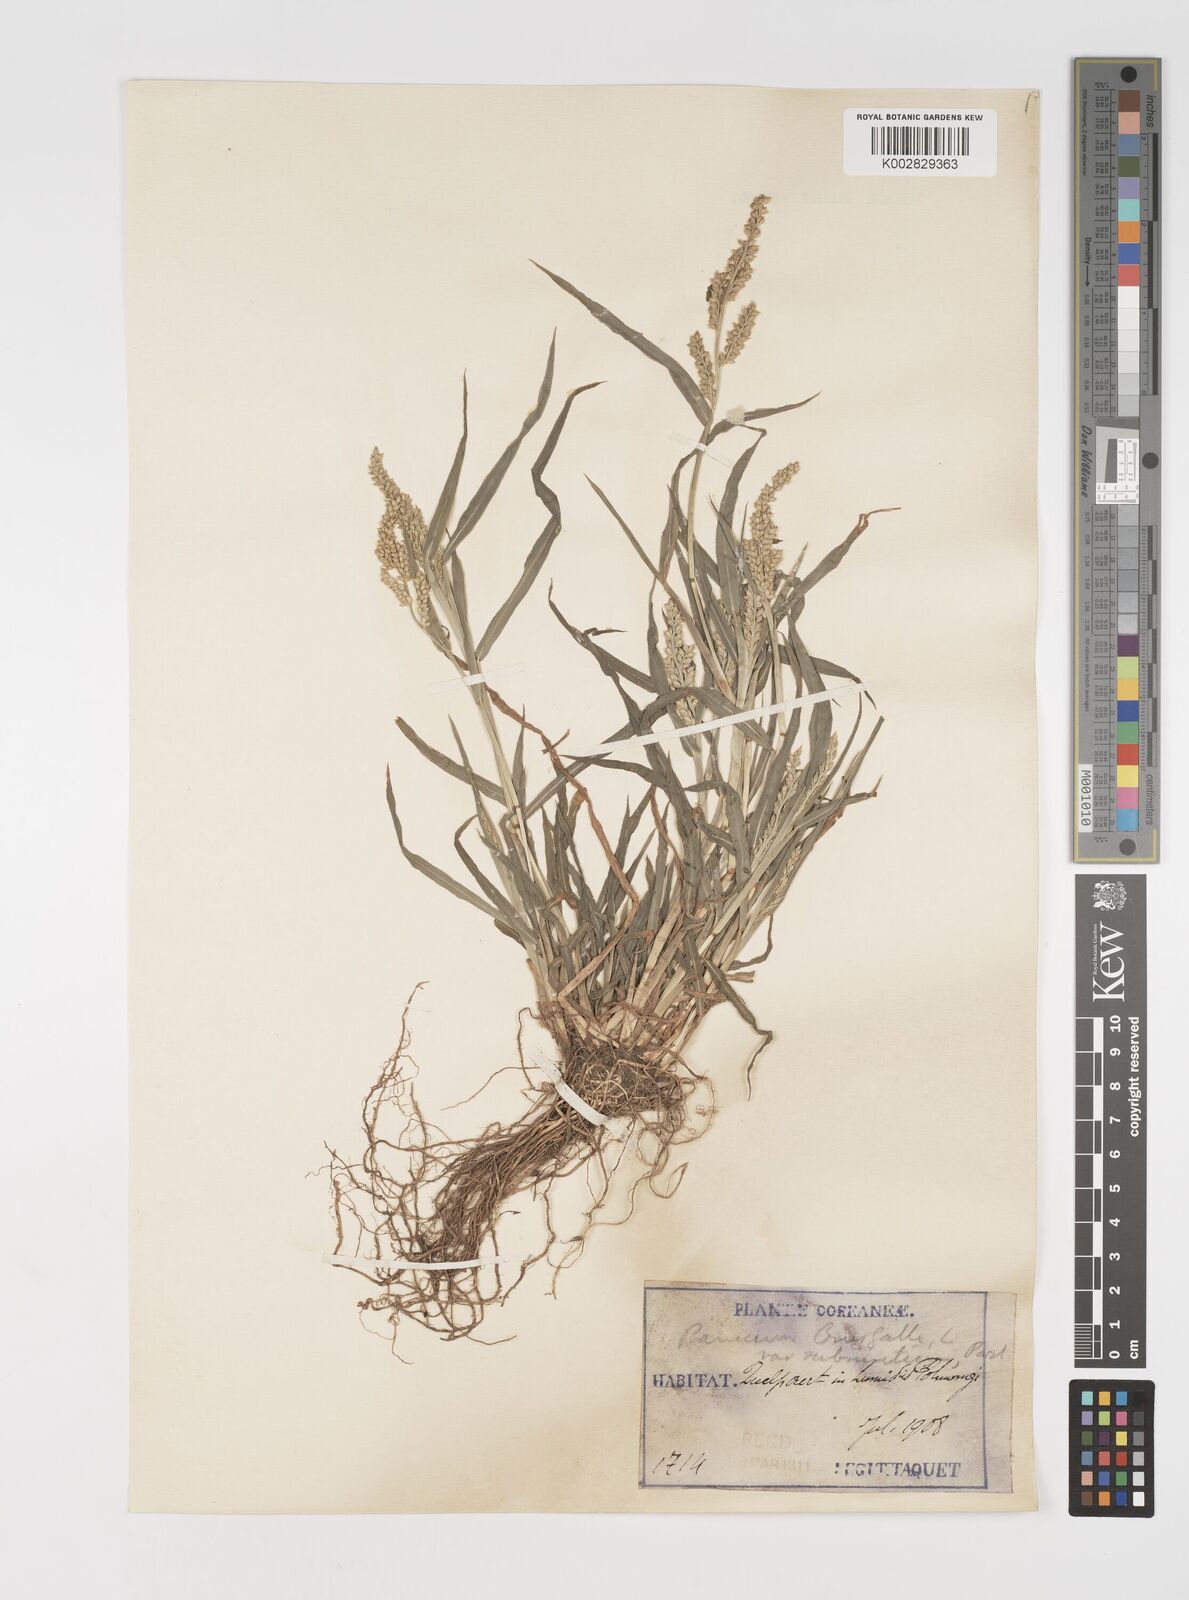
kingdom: Plantae
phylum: Tracheophyta
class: Liliopsida
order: Poales
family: Poaceae
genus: Echinochloa
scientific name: Echinochloa crus-galli
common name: Cockspur
